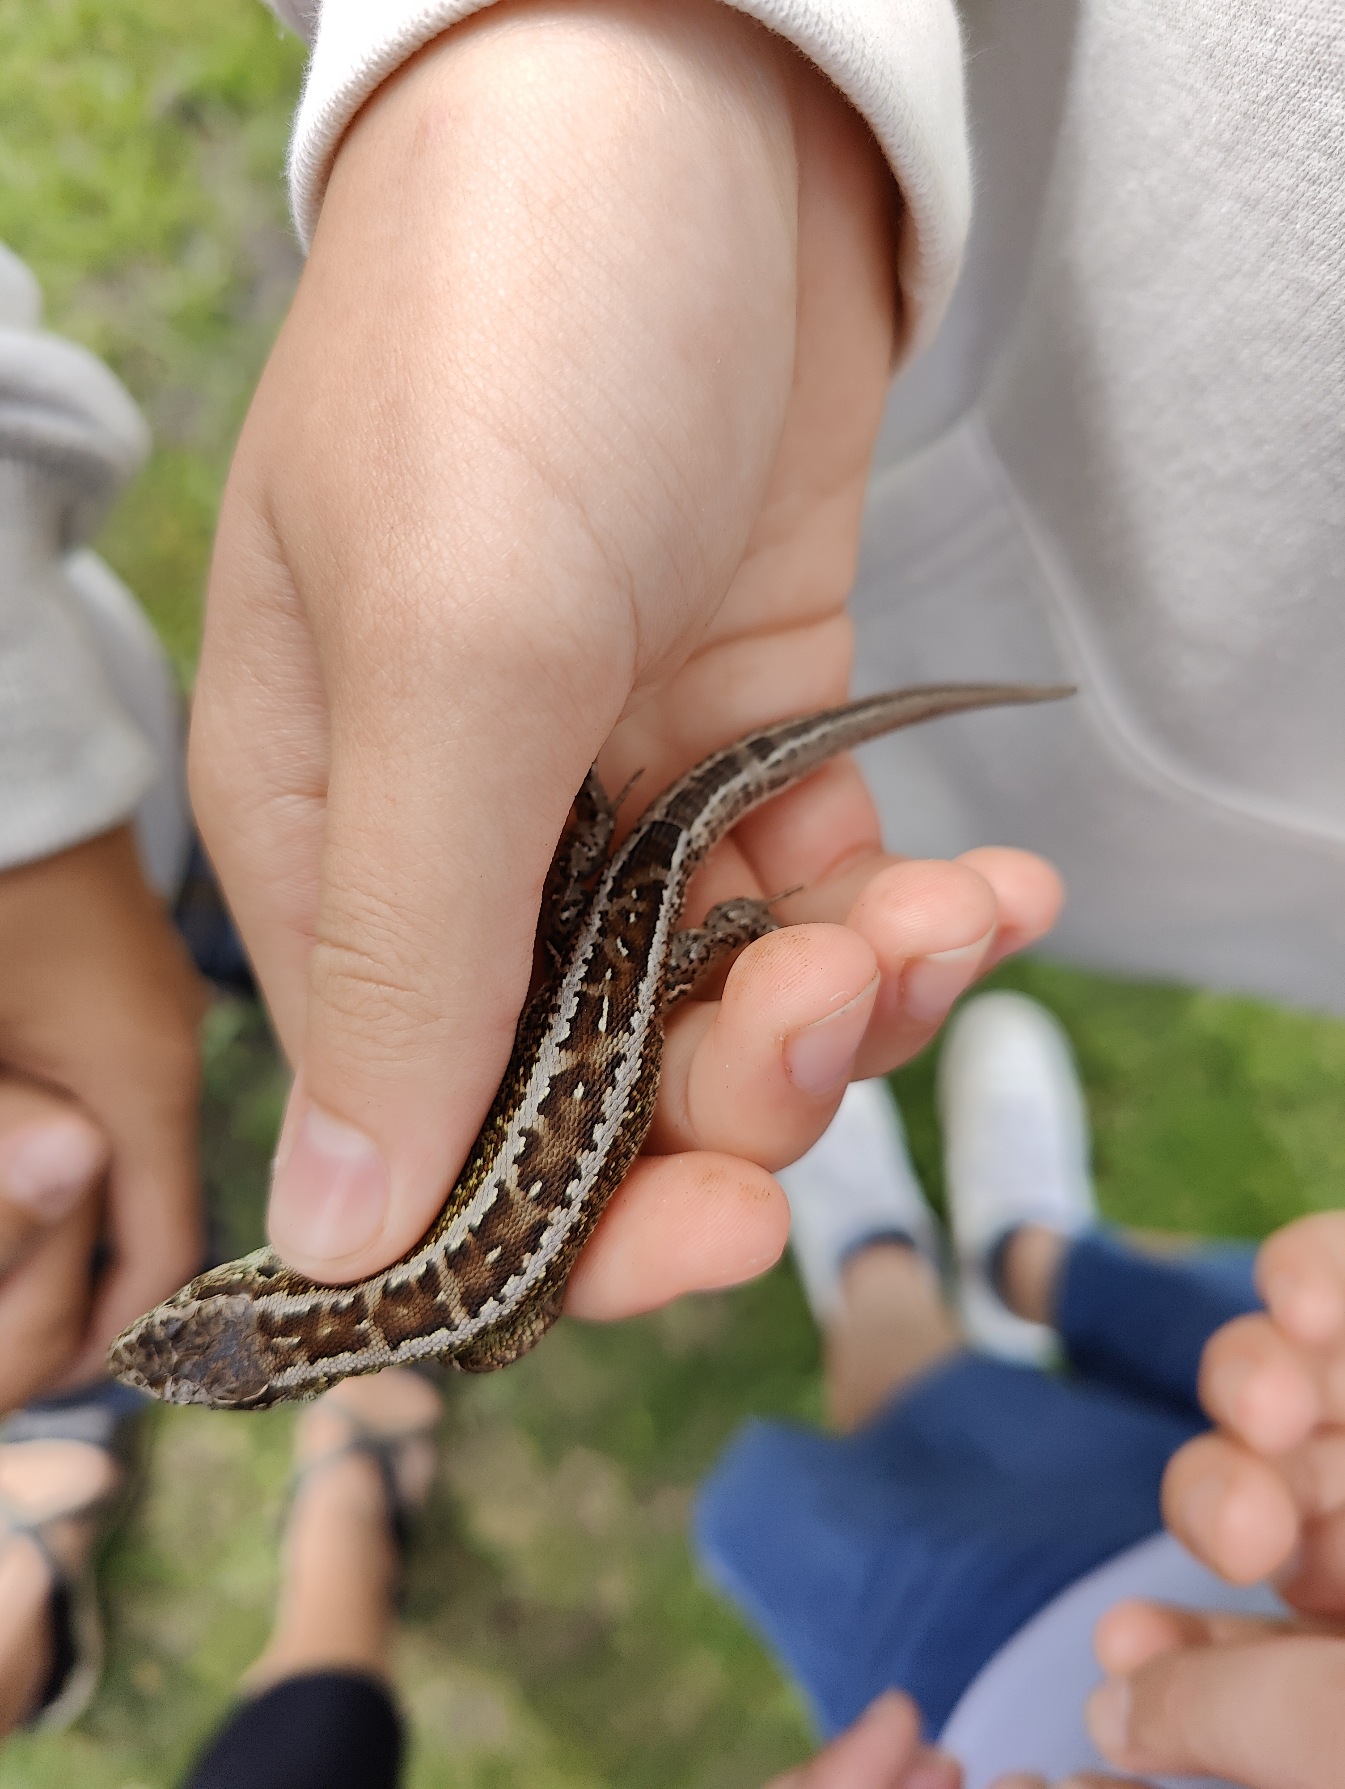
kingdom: Animalia
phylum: Chordata
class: Squamata
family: Lacertidae
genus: Lacerta
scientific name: Lacerta agilis
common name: Markfirben
